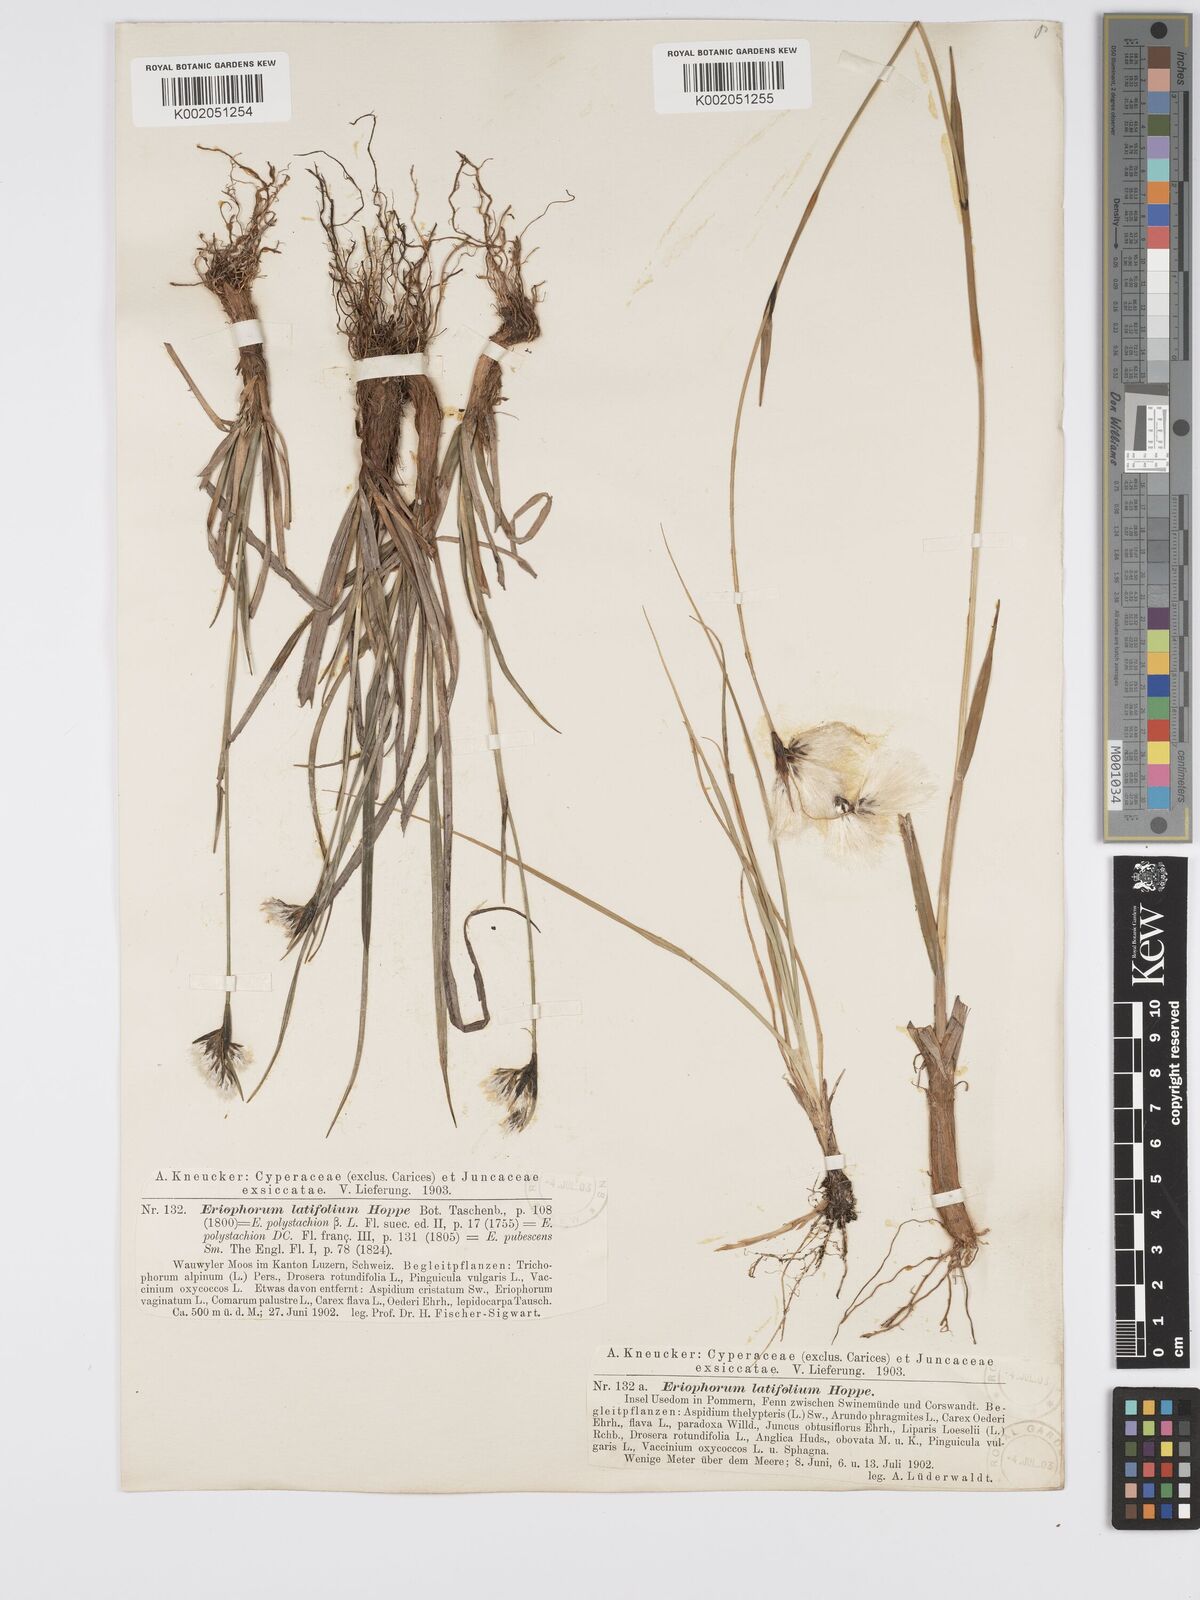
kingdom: Plantae
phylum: Tracheophyta
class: Liliopsida
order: Poales
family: Cyperaceae
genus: Eriophorum
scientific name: Eriophorum latifolium
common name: Broad-leaved cottongrass
